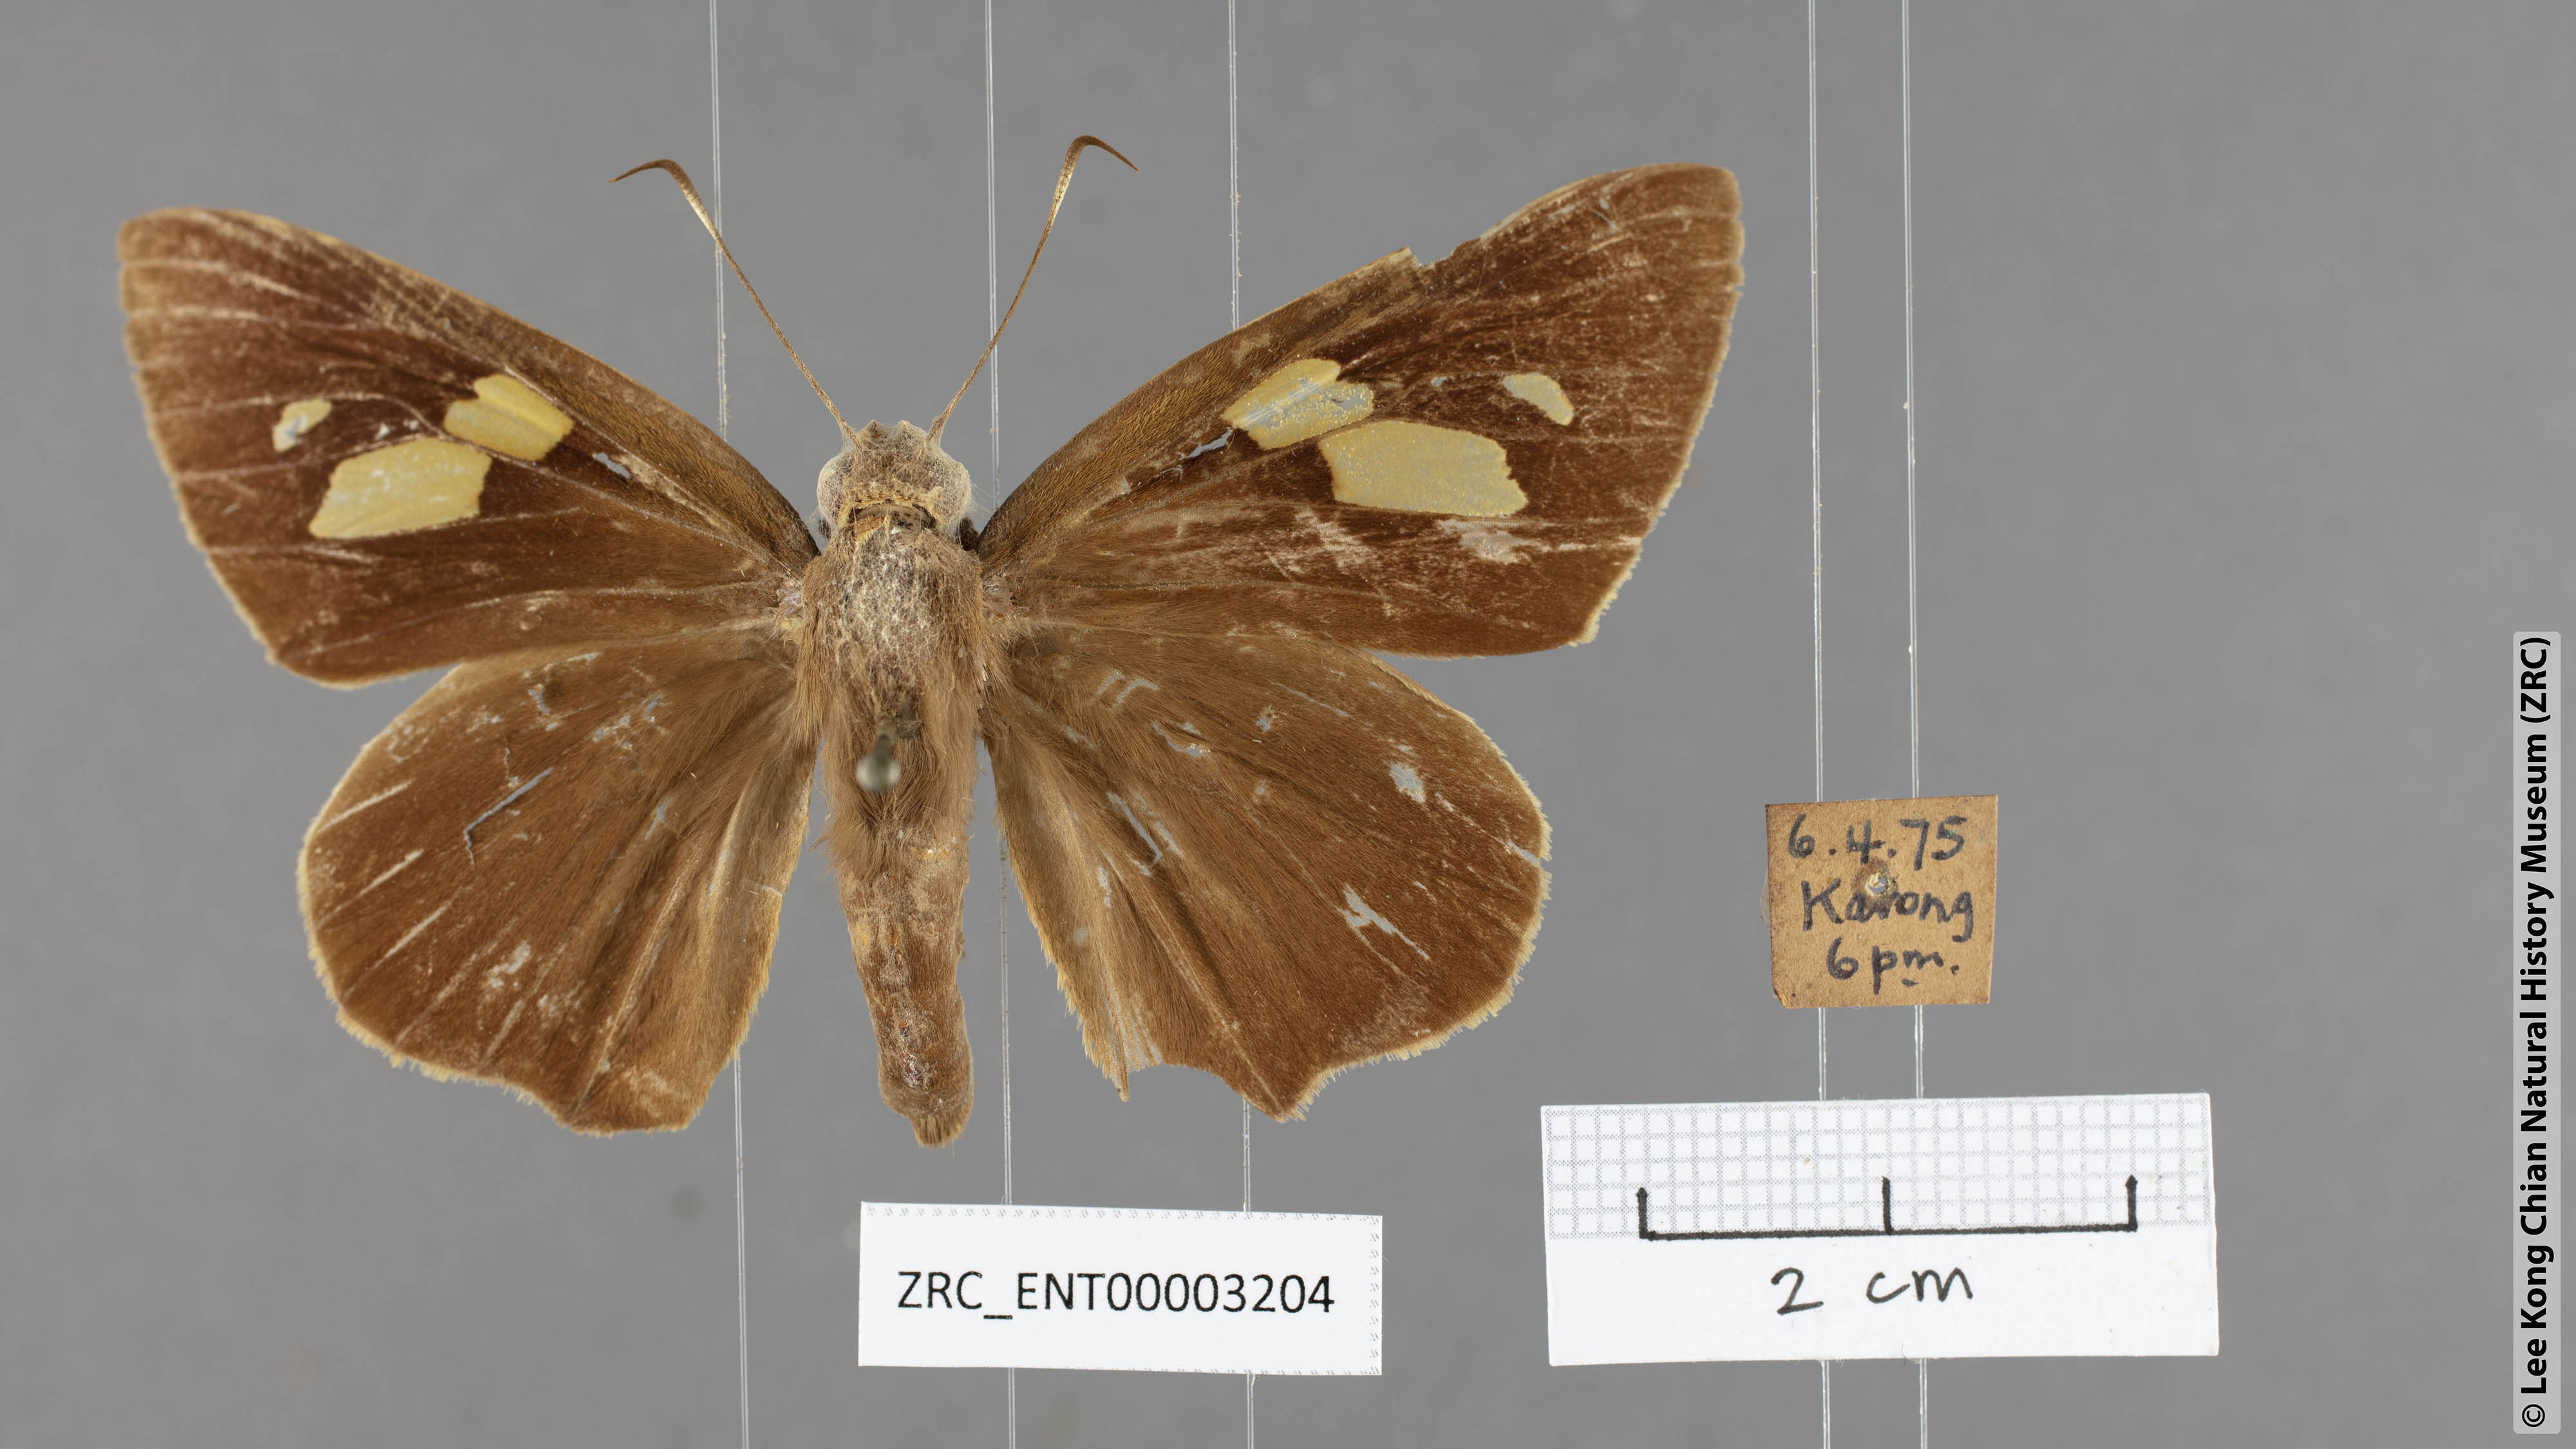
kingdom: Animalia
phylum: Arthropoda
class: Insecta
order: Lepidoptera
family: Hesperiidae
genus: Erionota
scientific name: Erionota torus
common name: Rounded palm-redeye
